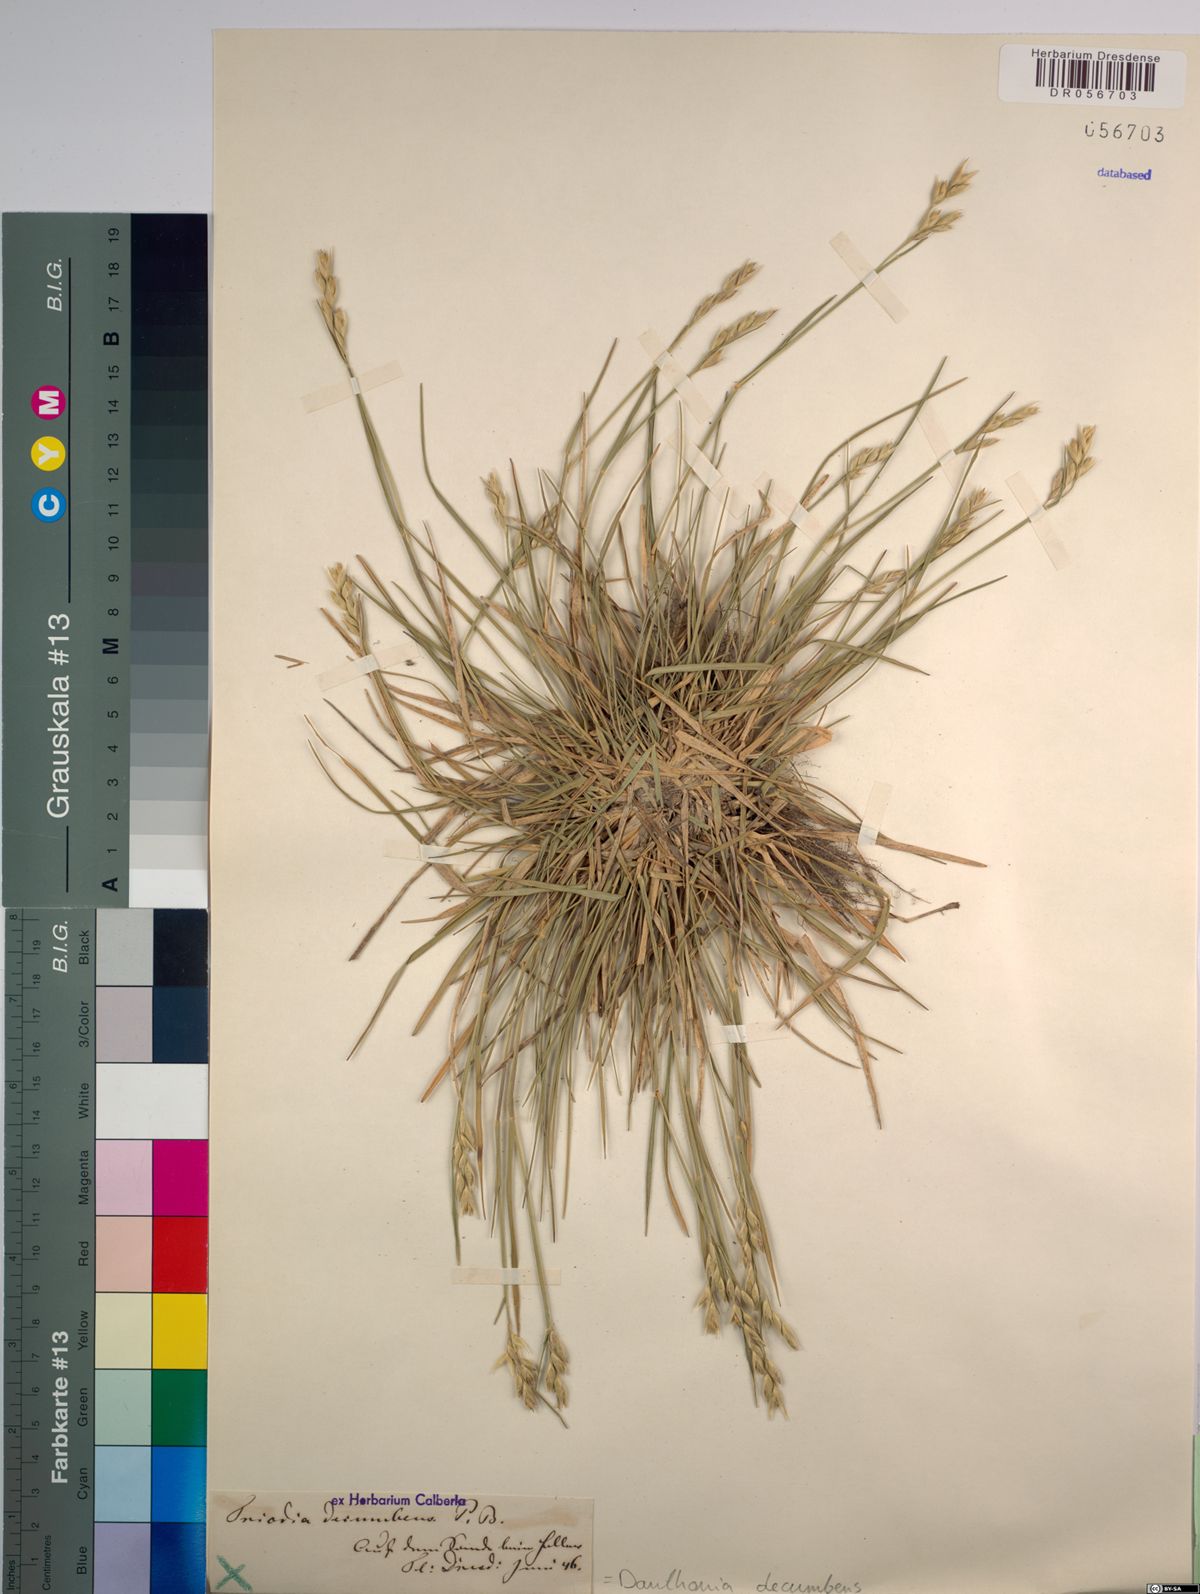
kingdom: Plantae
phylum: Tracheophyta
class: Liliopsida
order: Poales
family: Poaceae
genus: Danthonia
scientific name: Danthonia decumbens
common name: Common heathgrass
